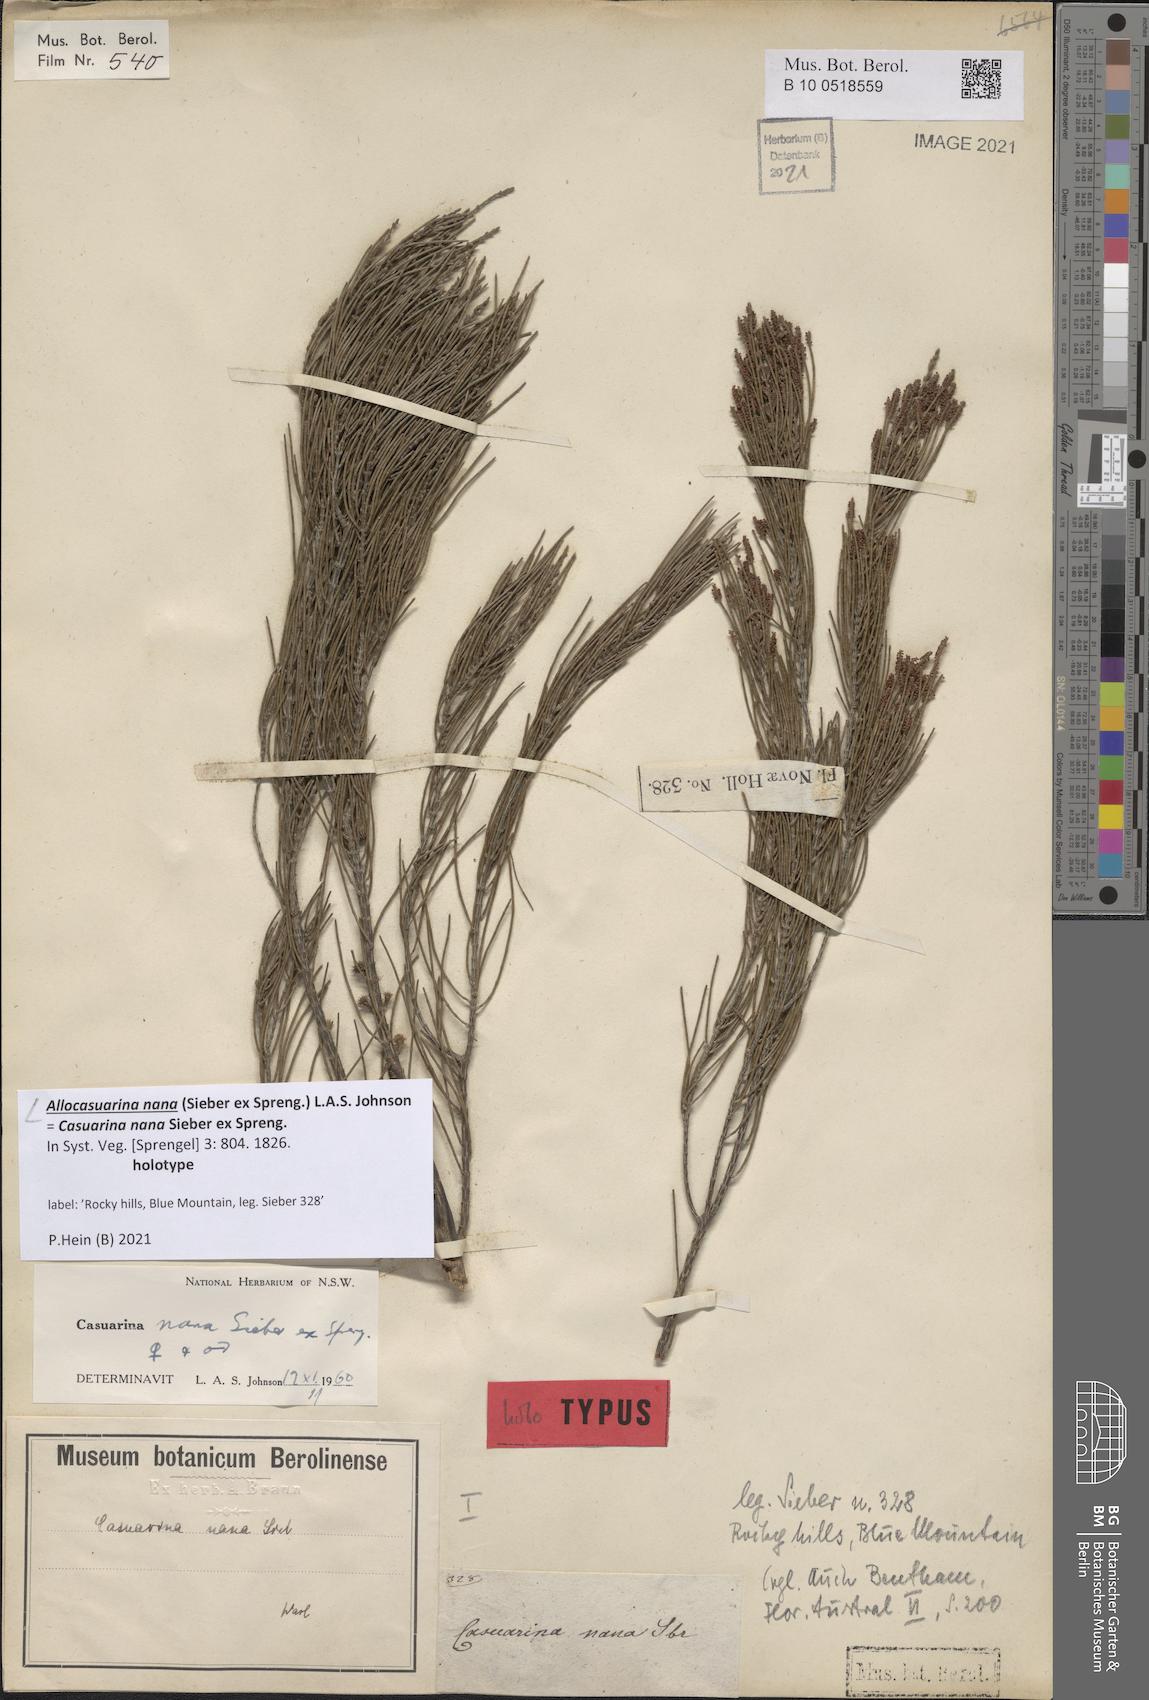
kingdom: Plantae
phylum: Tracheophyta
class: Magnoliopsida
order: Fagales
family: Casuarinaceae
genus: Allocasuarina
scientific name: Allocasuarina nana
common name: Stunted she-oak
